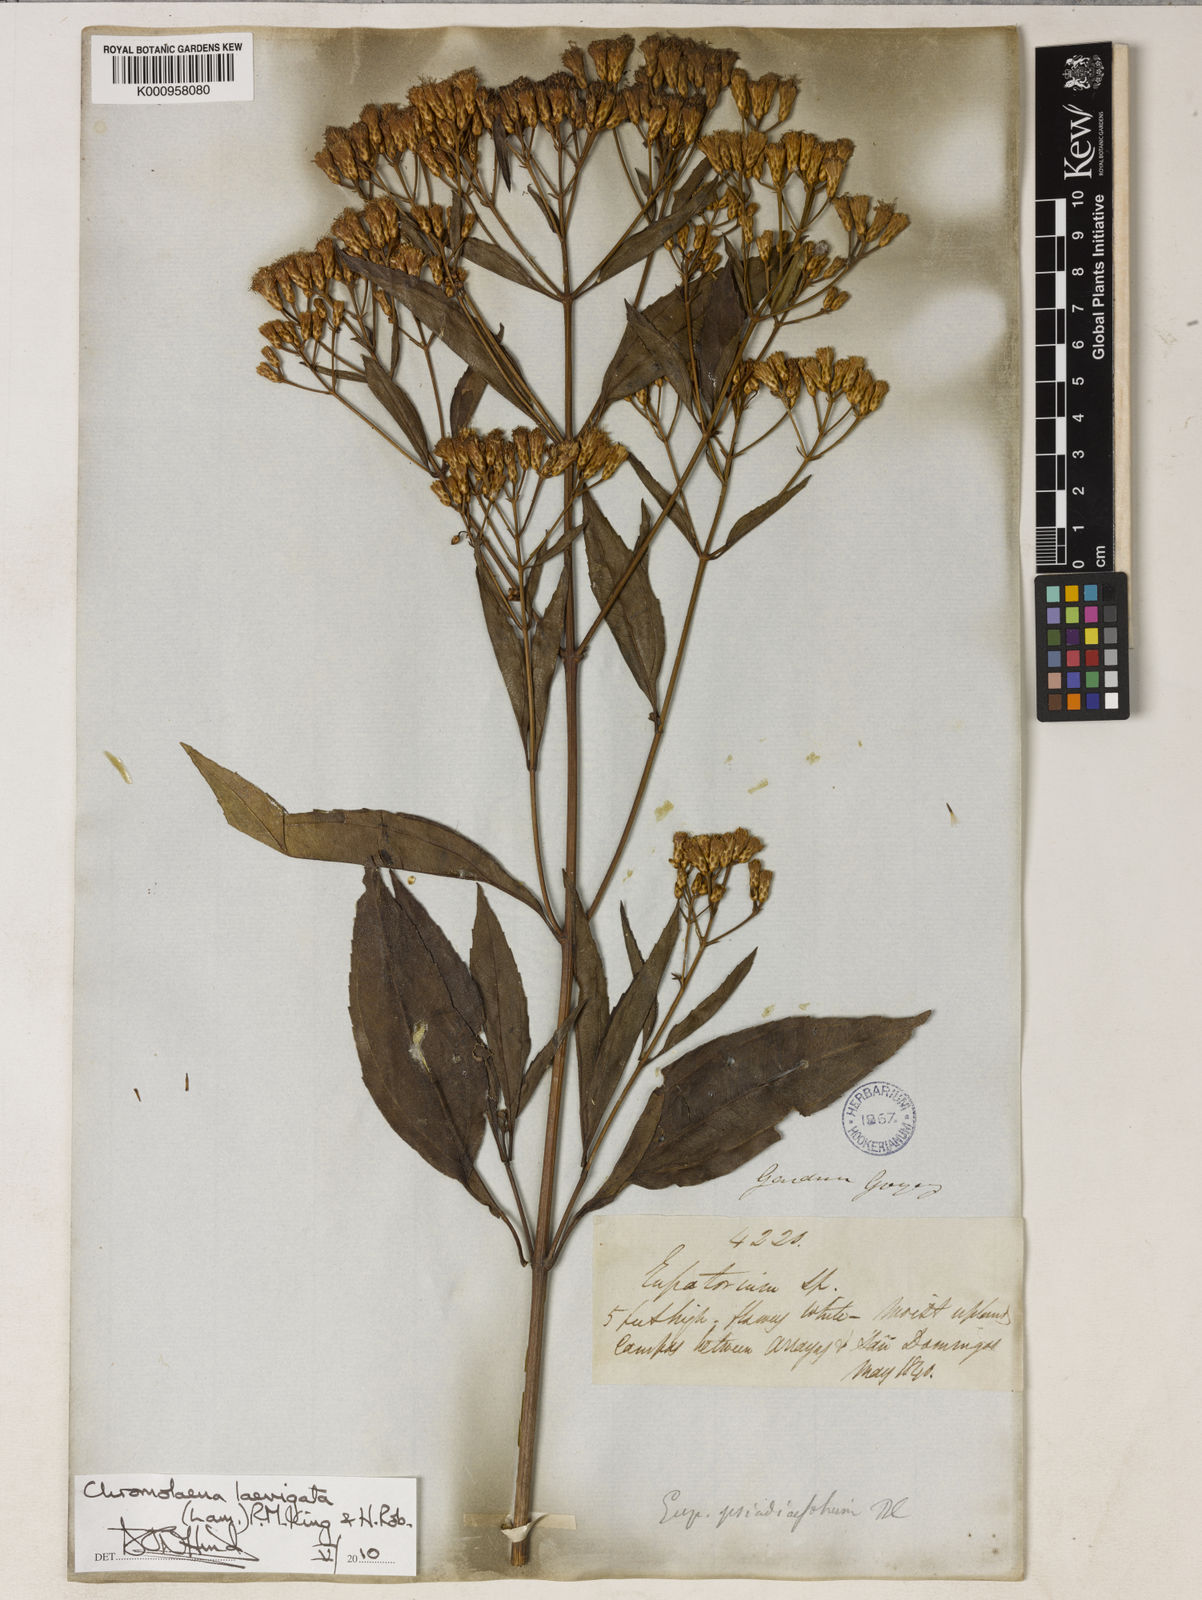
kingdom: Plantae
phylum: Tracheophyta
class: Magnoliopsida
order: Asterales
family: Asteraceae
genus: Chromolaena
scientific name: Chromolaena laevigata
